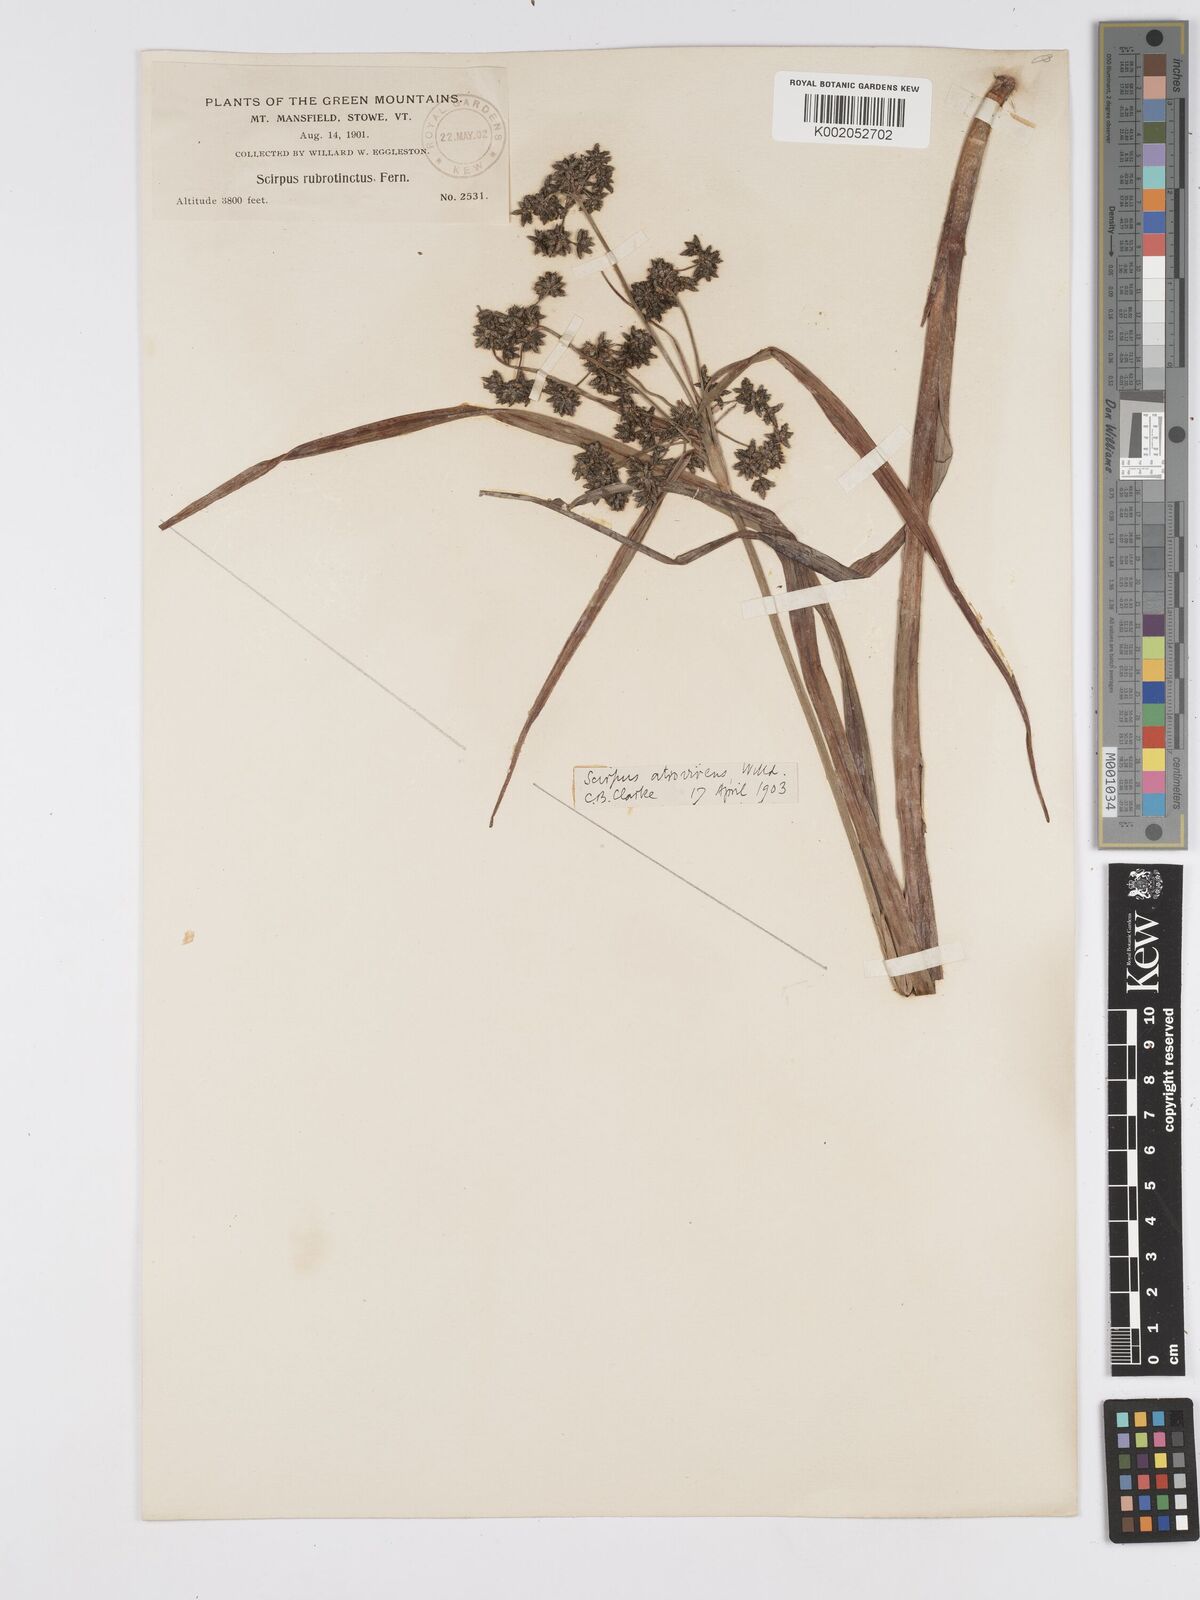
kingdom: Plantae
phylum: Tracheophyta
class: Liliopsida
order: Poales
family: Cyperaceae
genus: Scirpus
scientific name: Scirpus atrovirens
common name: Black bulrush
